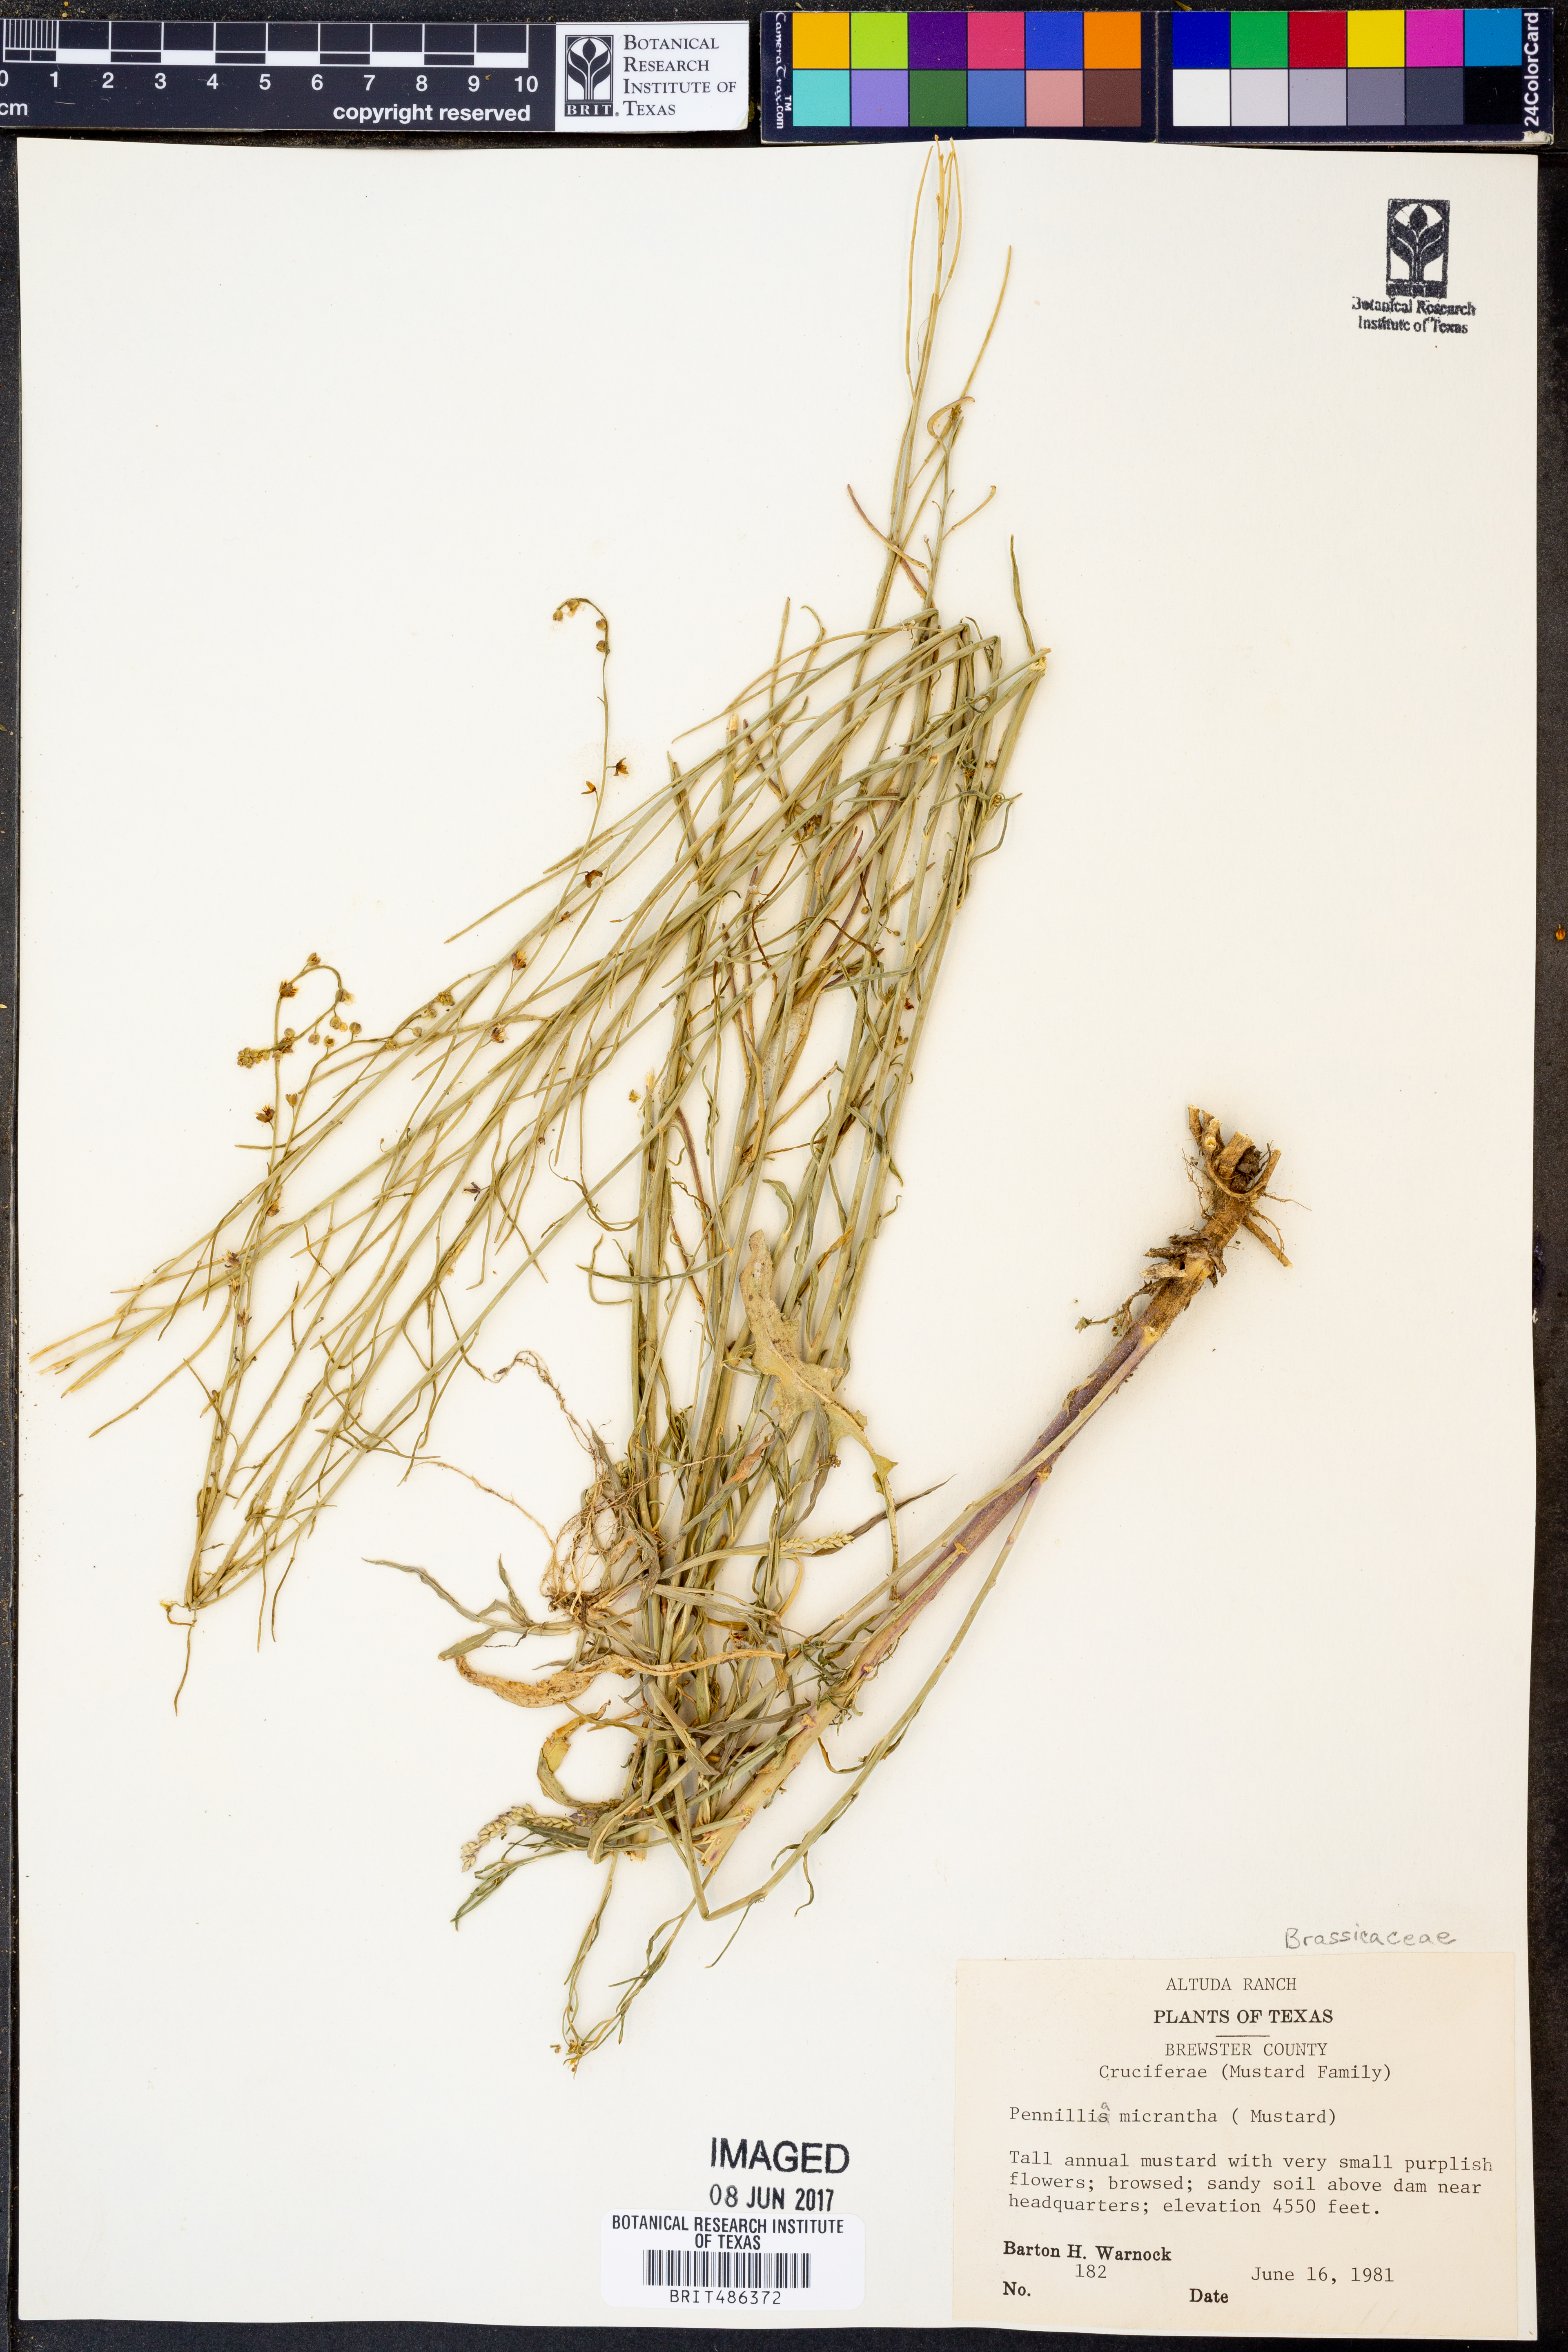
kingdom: Plantae
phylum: Tracheophyta
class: Magnoliopsida
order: Brassicales
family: Brassicaceae
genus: Pennellia
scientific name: Pennellia micrantha
